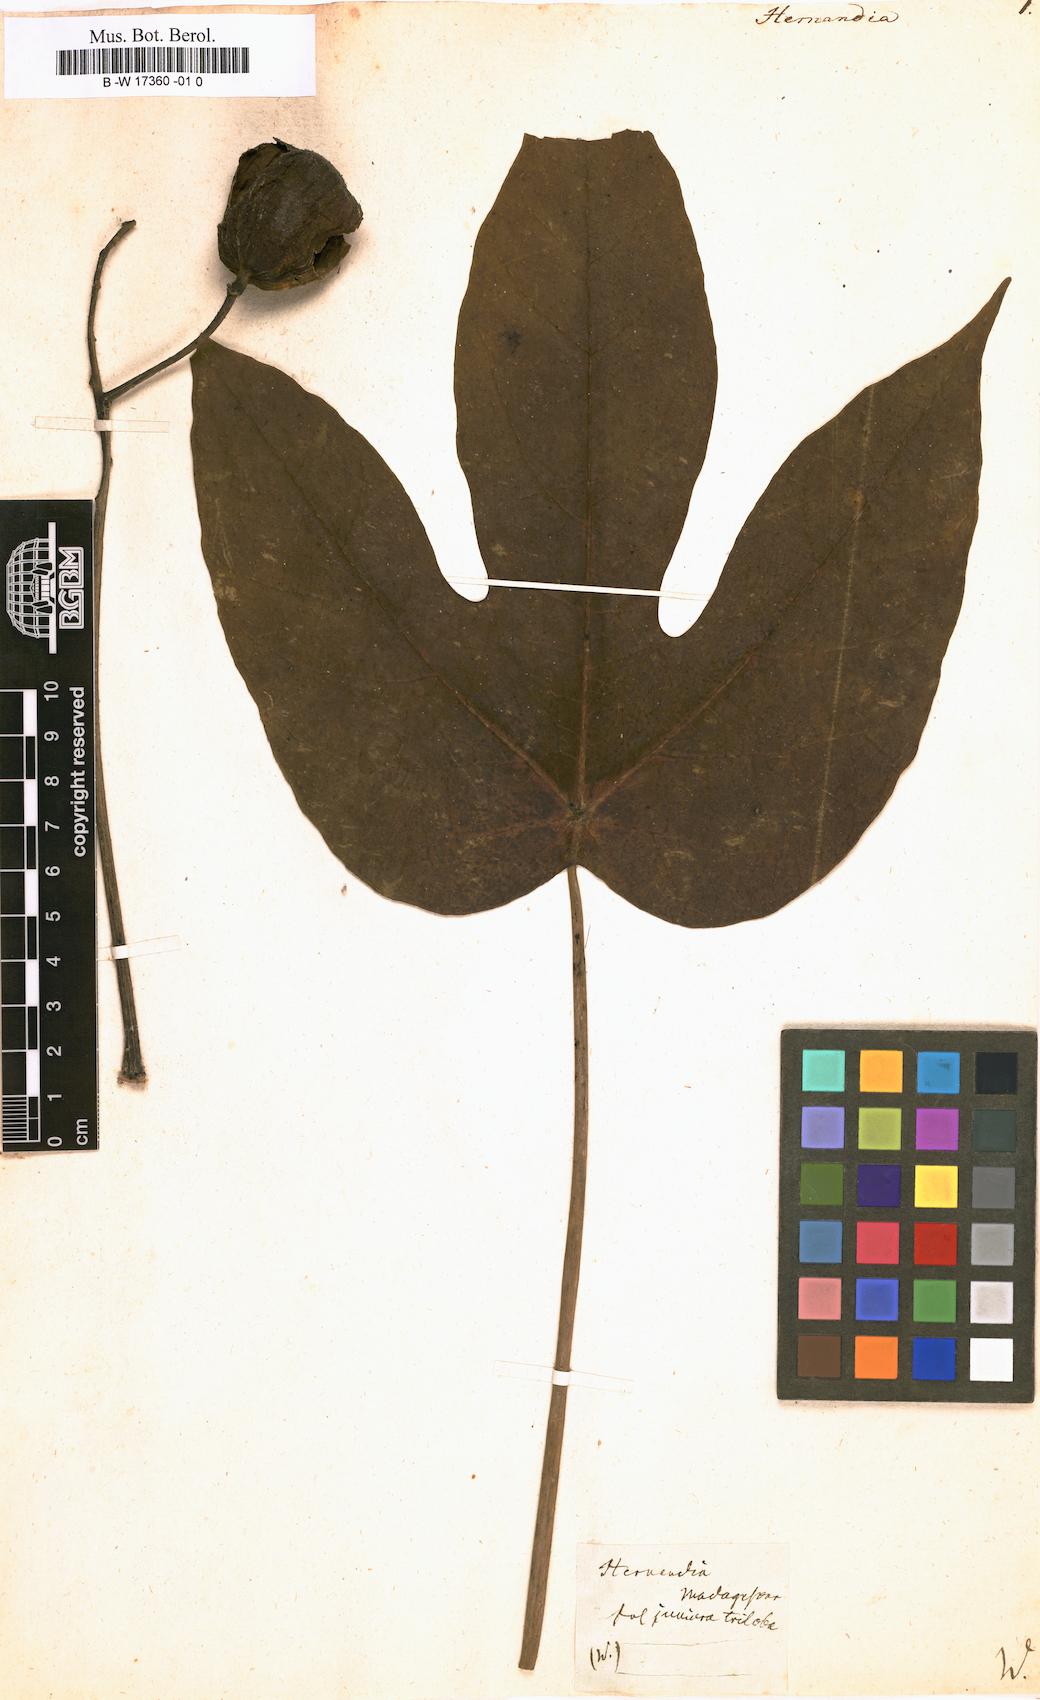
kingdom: Plantae
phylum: Tracheophyta
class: Magnoliopsida
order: Laurales
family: Hernandiaceae
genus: Hernandia
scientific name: Hernandia
